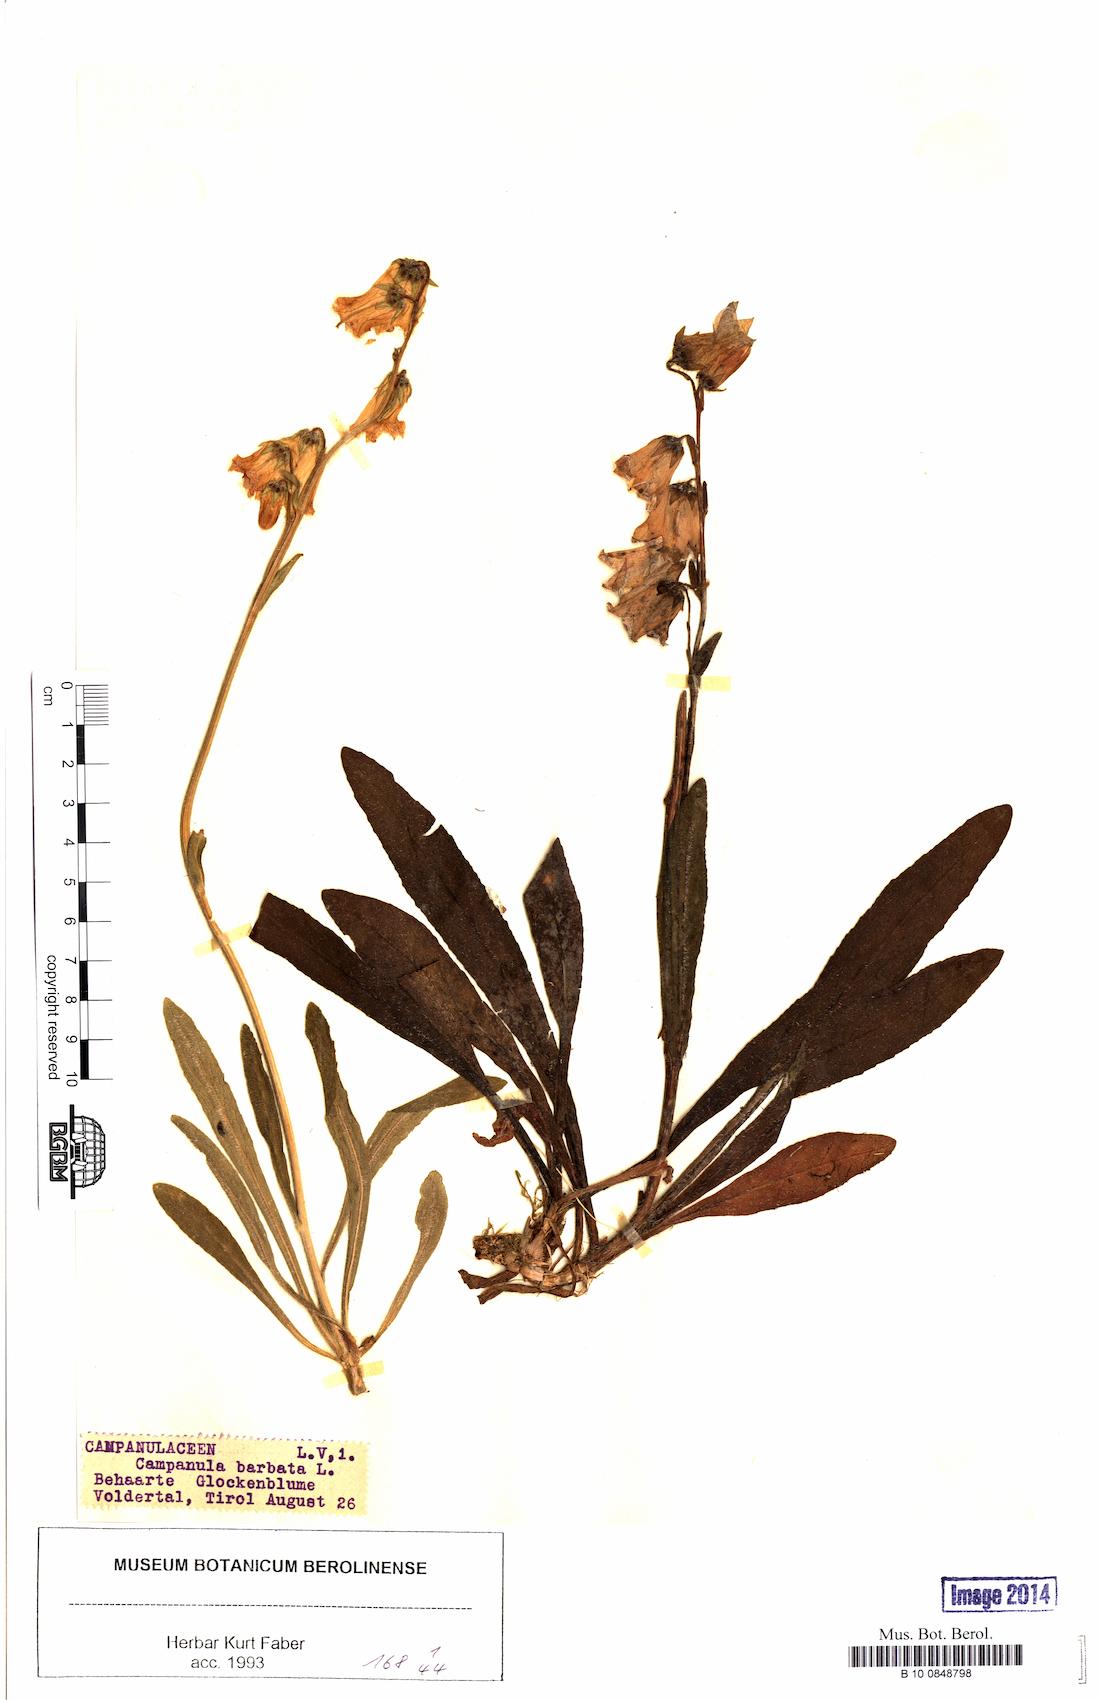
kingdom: Plantae
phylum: Tracheophyta
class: Magnoliopsida
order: Asterales
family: Campanulaceae
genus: Campanula
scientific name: Campanula barbata
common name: Bearded bellflower
